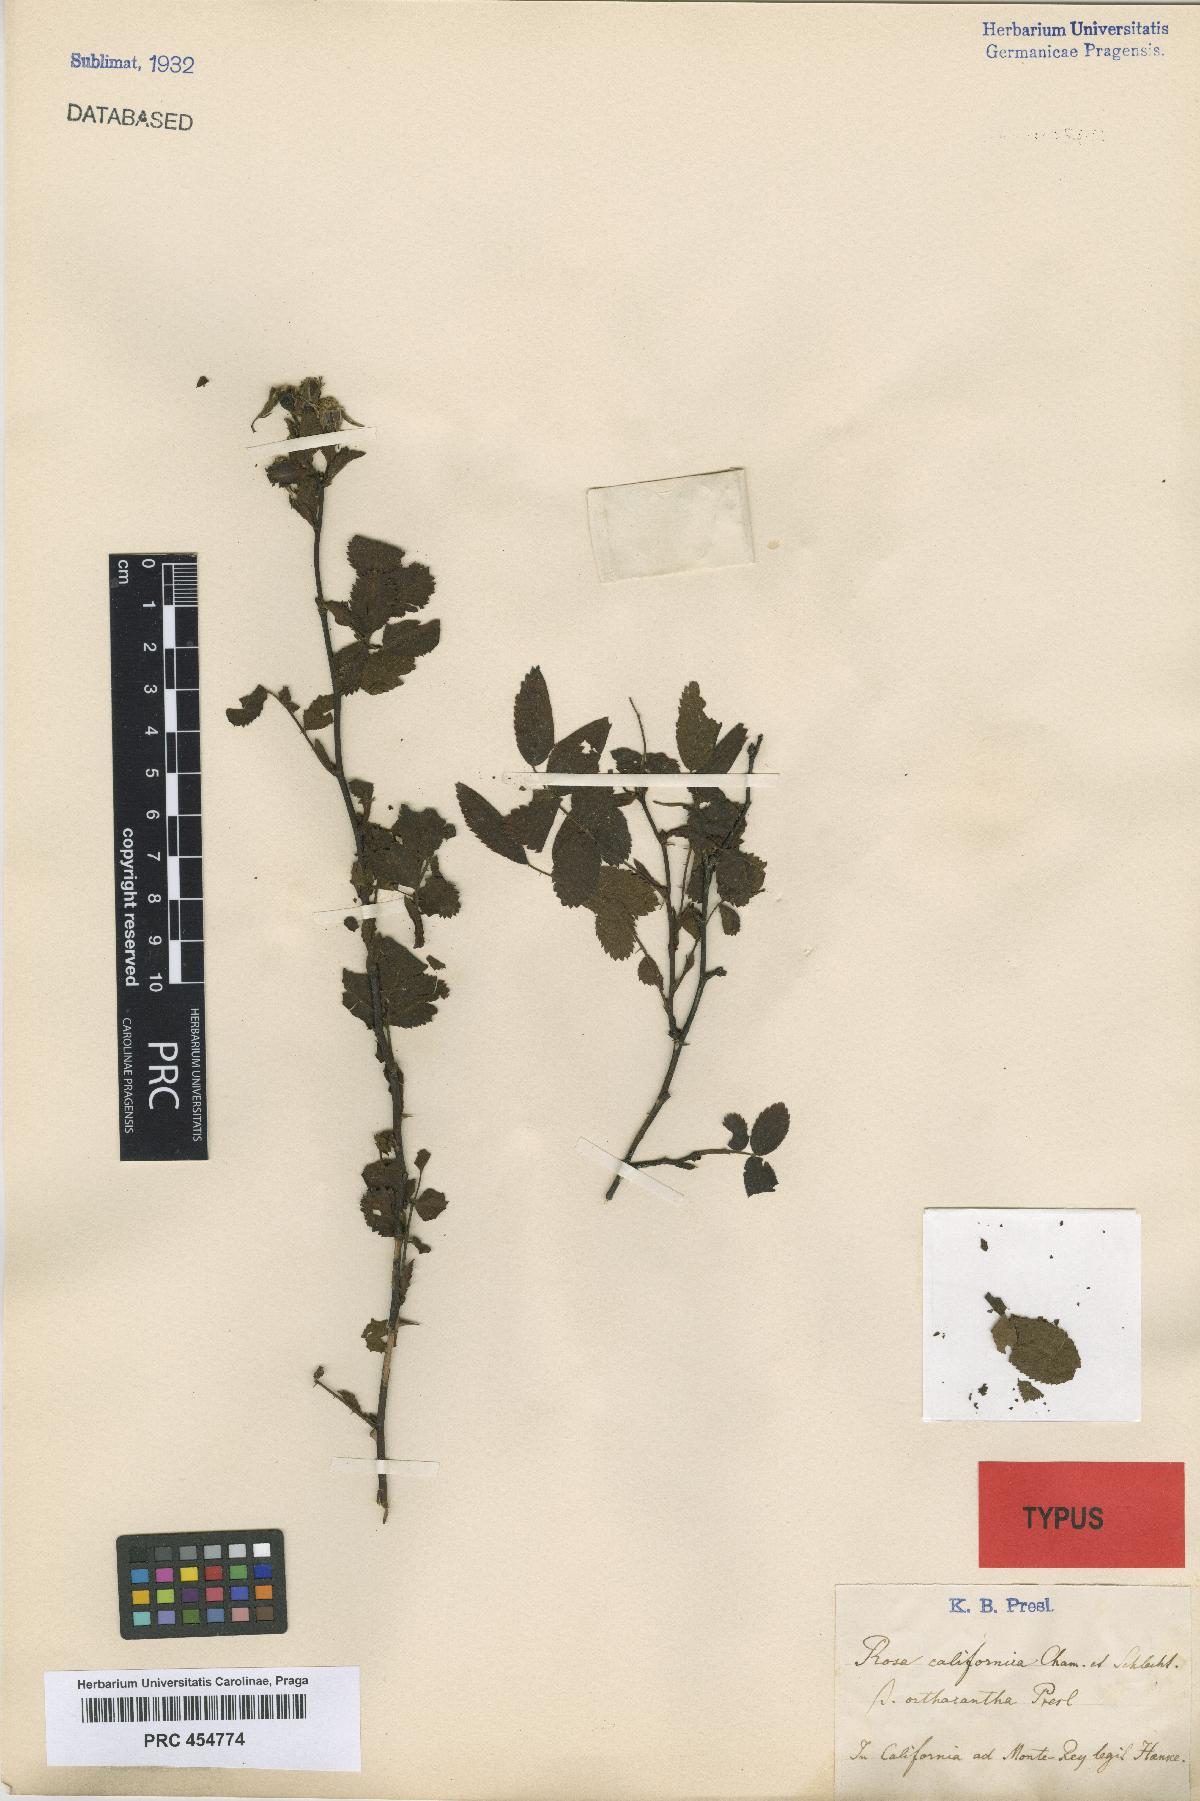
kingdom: Plantae
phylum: Tracheophyta
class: Magnoliopsida
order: Rosales
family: Rosaceae
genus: Rosa
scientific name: Rosa californica
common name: California rose
